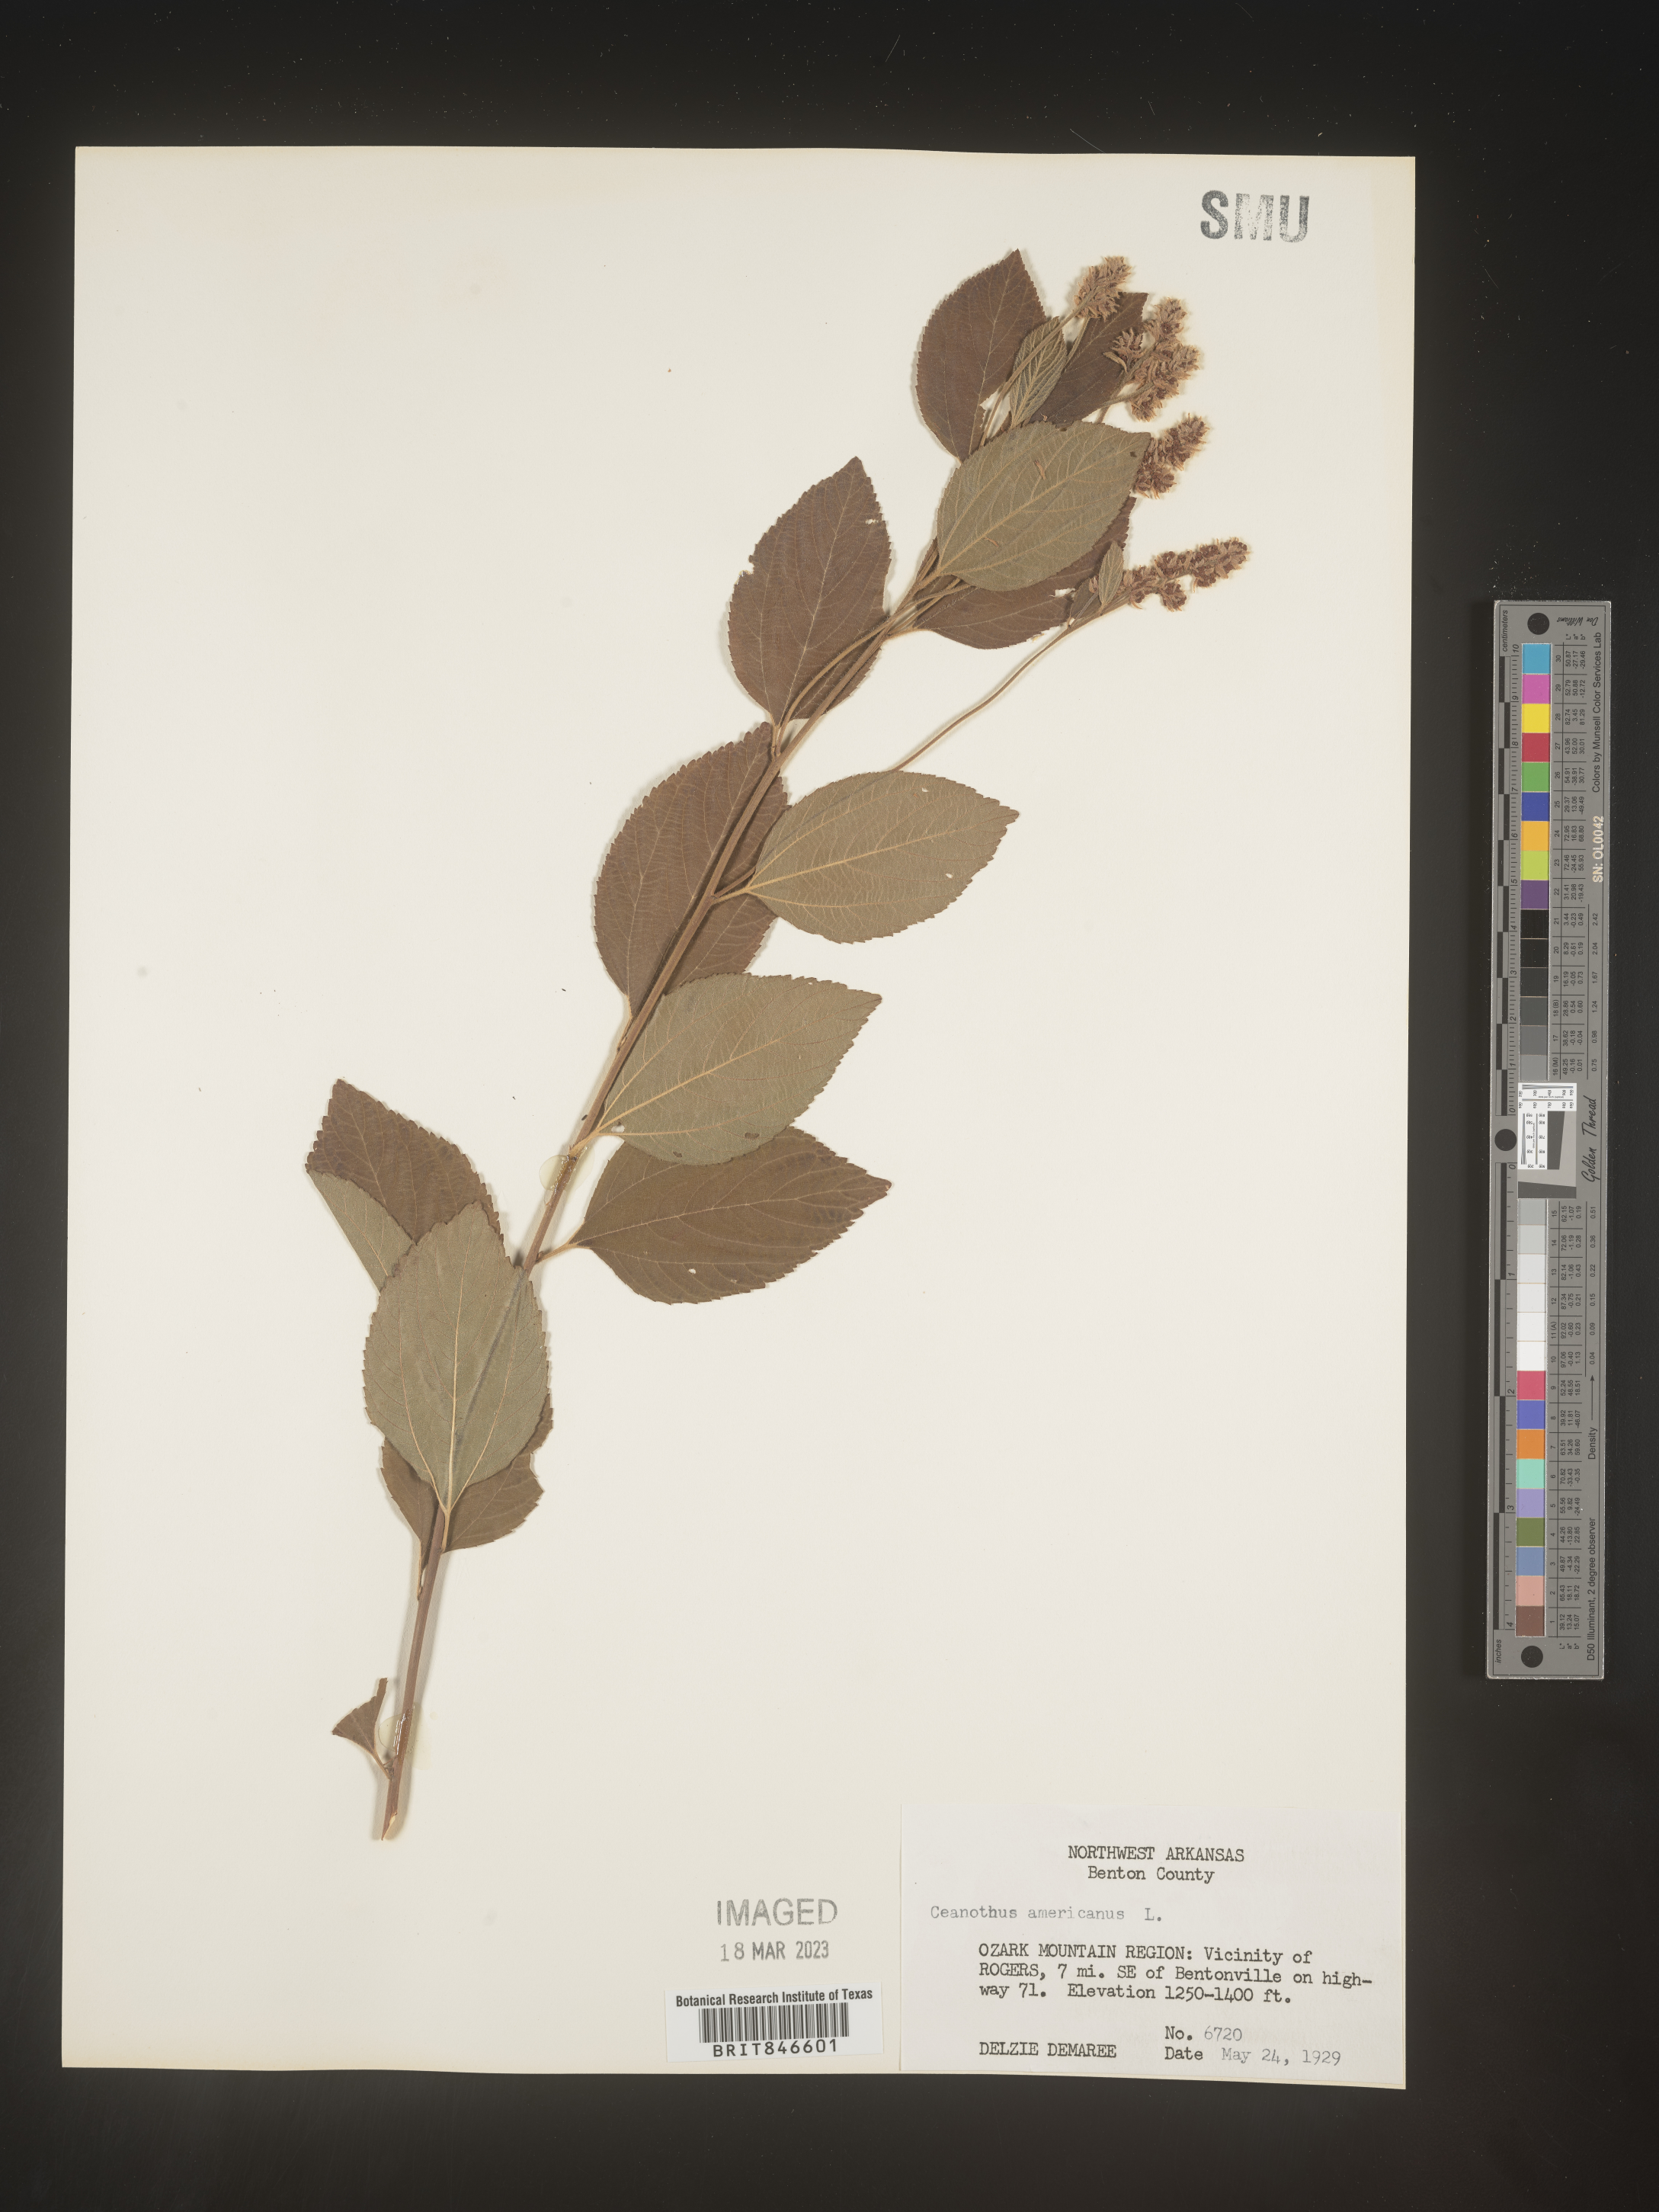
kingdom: Plantae
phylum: Tracheophyta
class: Magnoliopsida
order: Rosales
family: Rhamnaceae
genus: Ceanothus
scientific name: Ceanothus americanus
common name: Redroot
